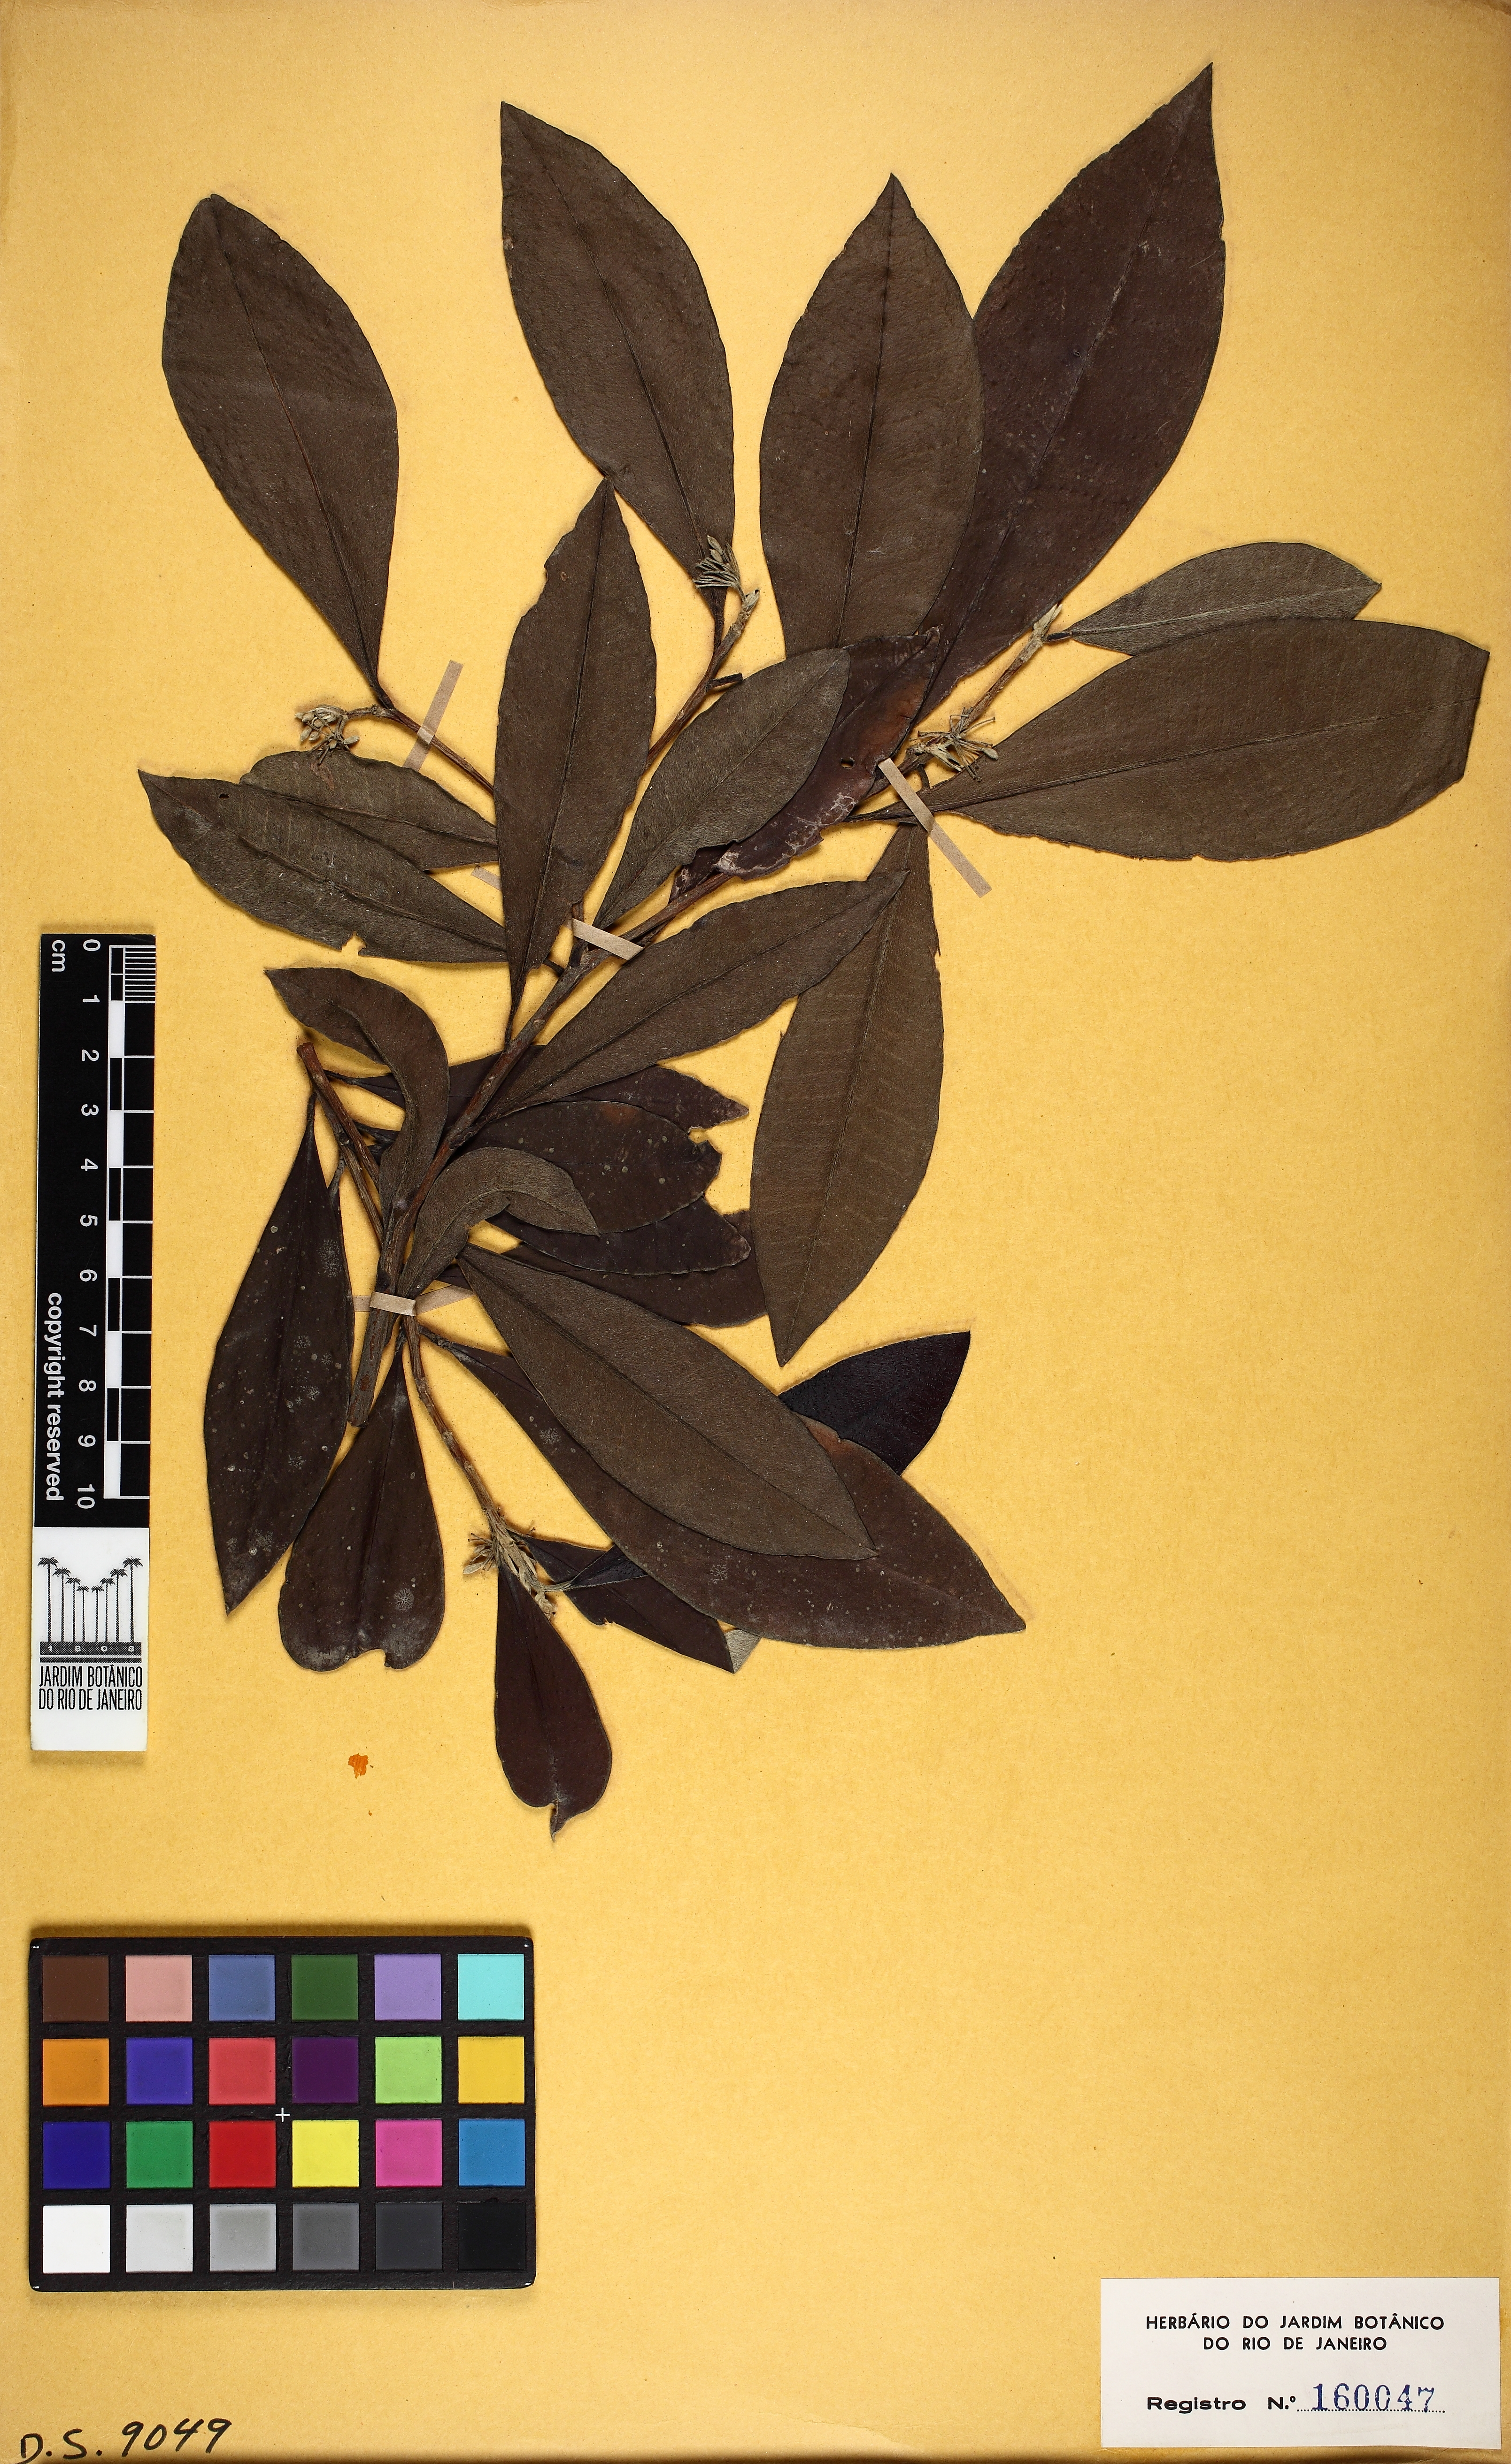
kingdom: Plantae
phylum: Tracheophyta
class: Magnoliopsida
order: Malvales
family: Thymelaeaceae
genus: Funifera
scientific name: Funifera grandifolia
